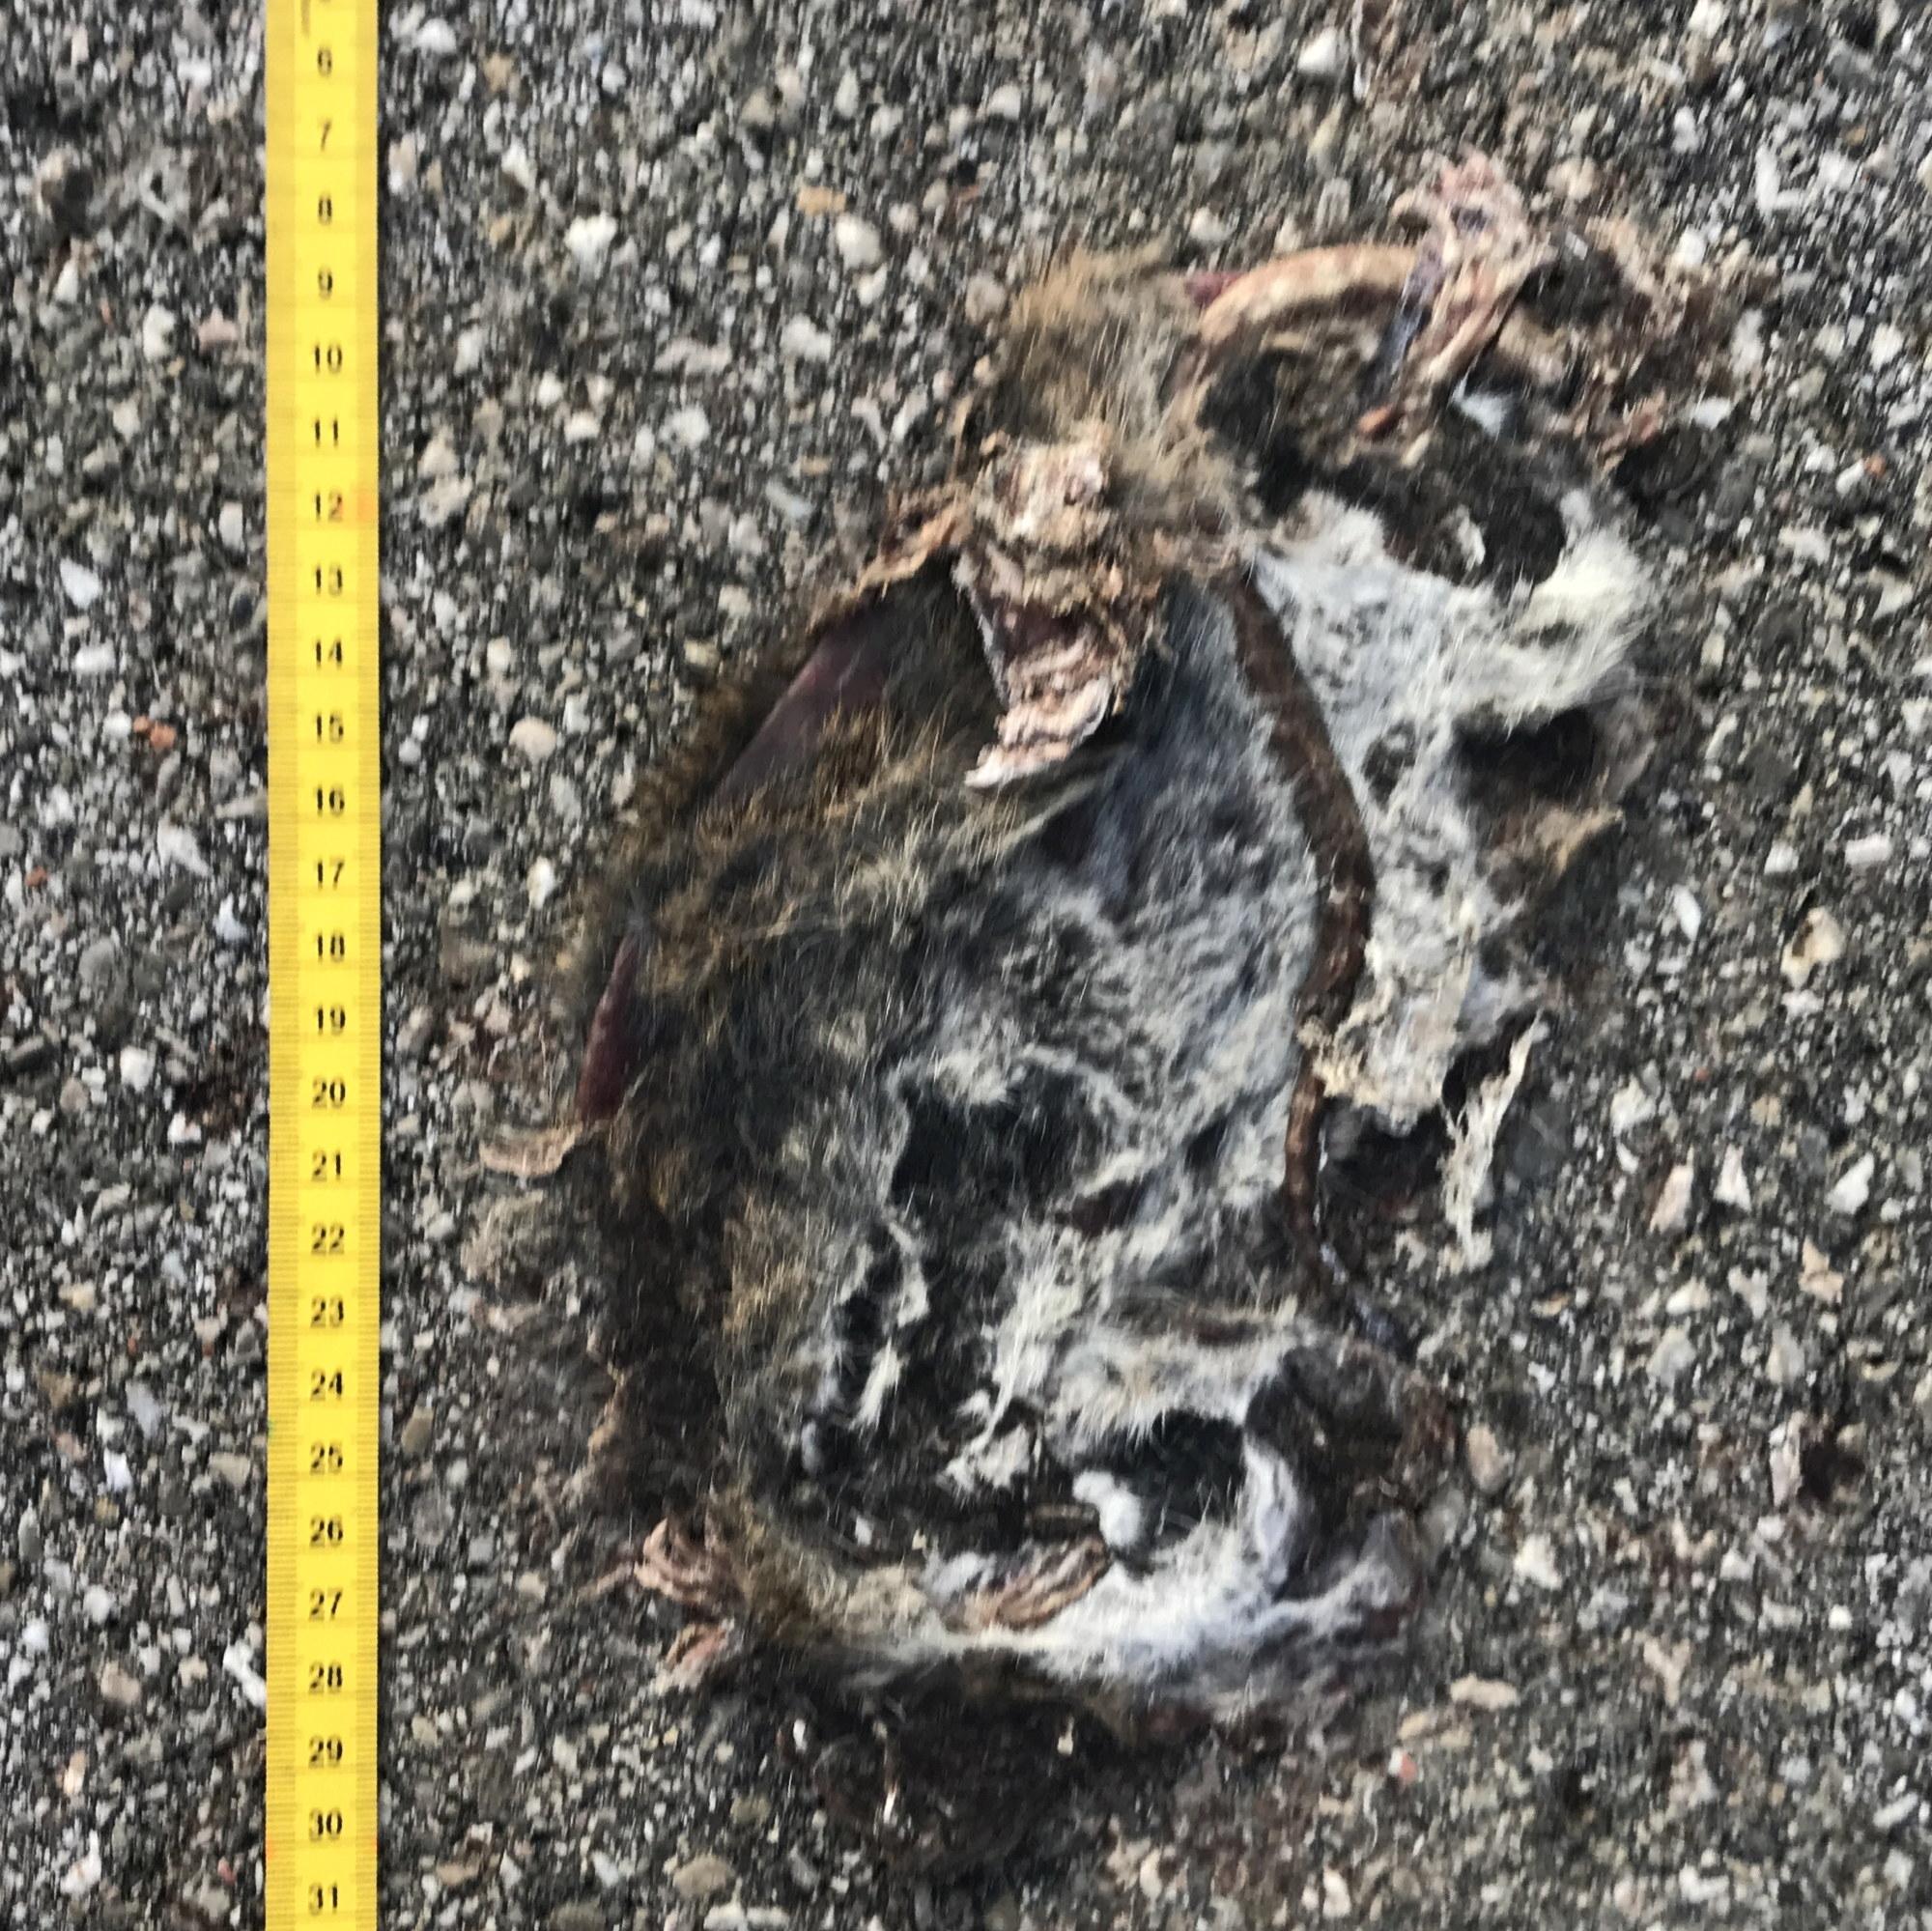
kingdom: Animalia
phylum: Chordata
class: Mammalia
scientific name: Mammalia
